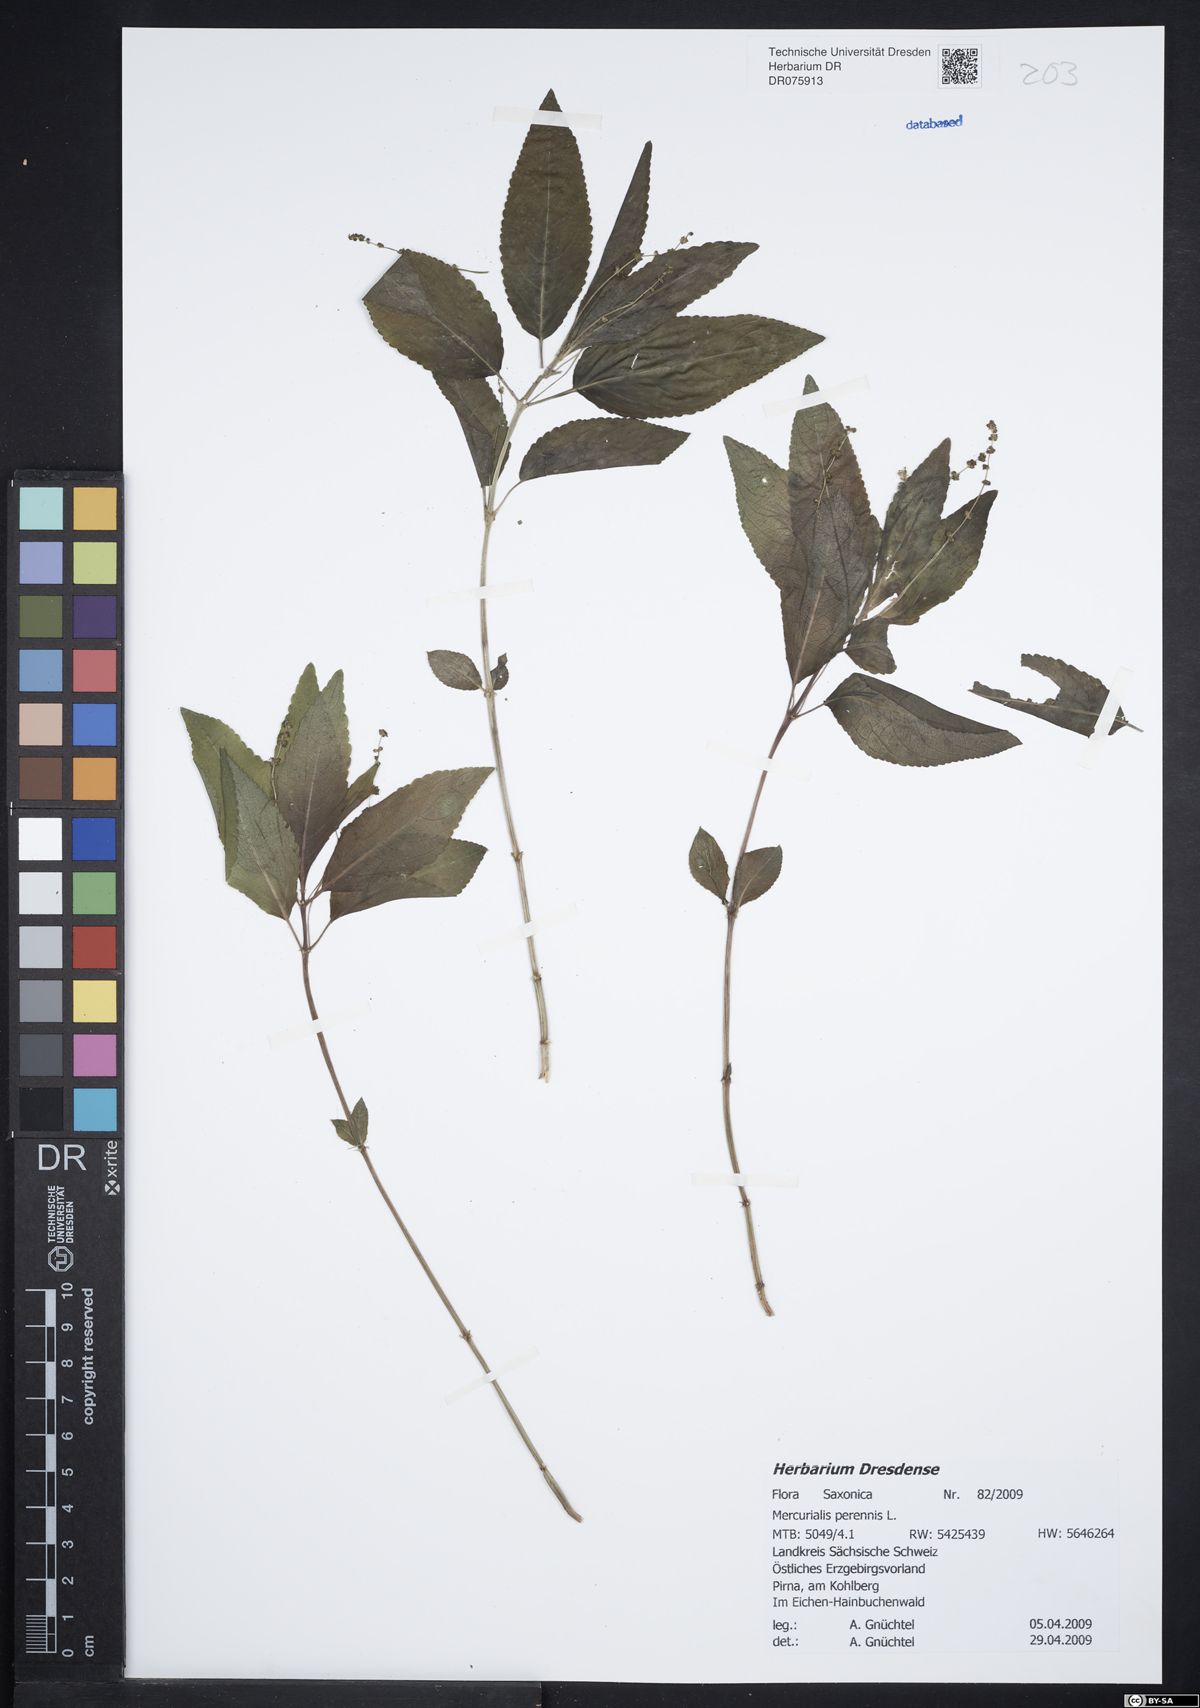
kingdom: Plantae
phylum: Tracheophyta
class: Magnoliopsida
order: Malpighiales
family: Euphorbiaceae
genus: Mercurialis
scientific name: Mercurialis perennis
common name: Dog mercury
